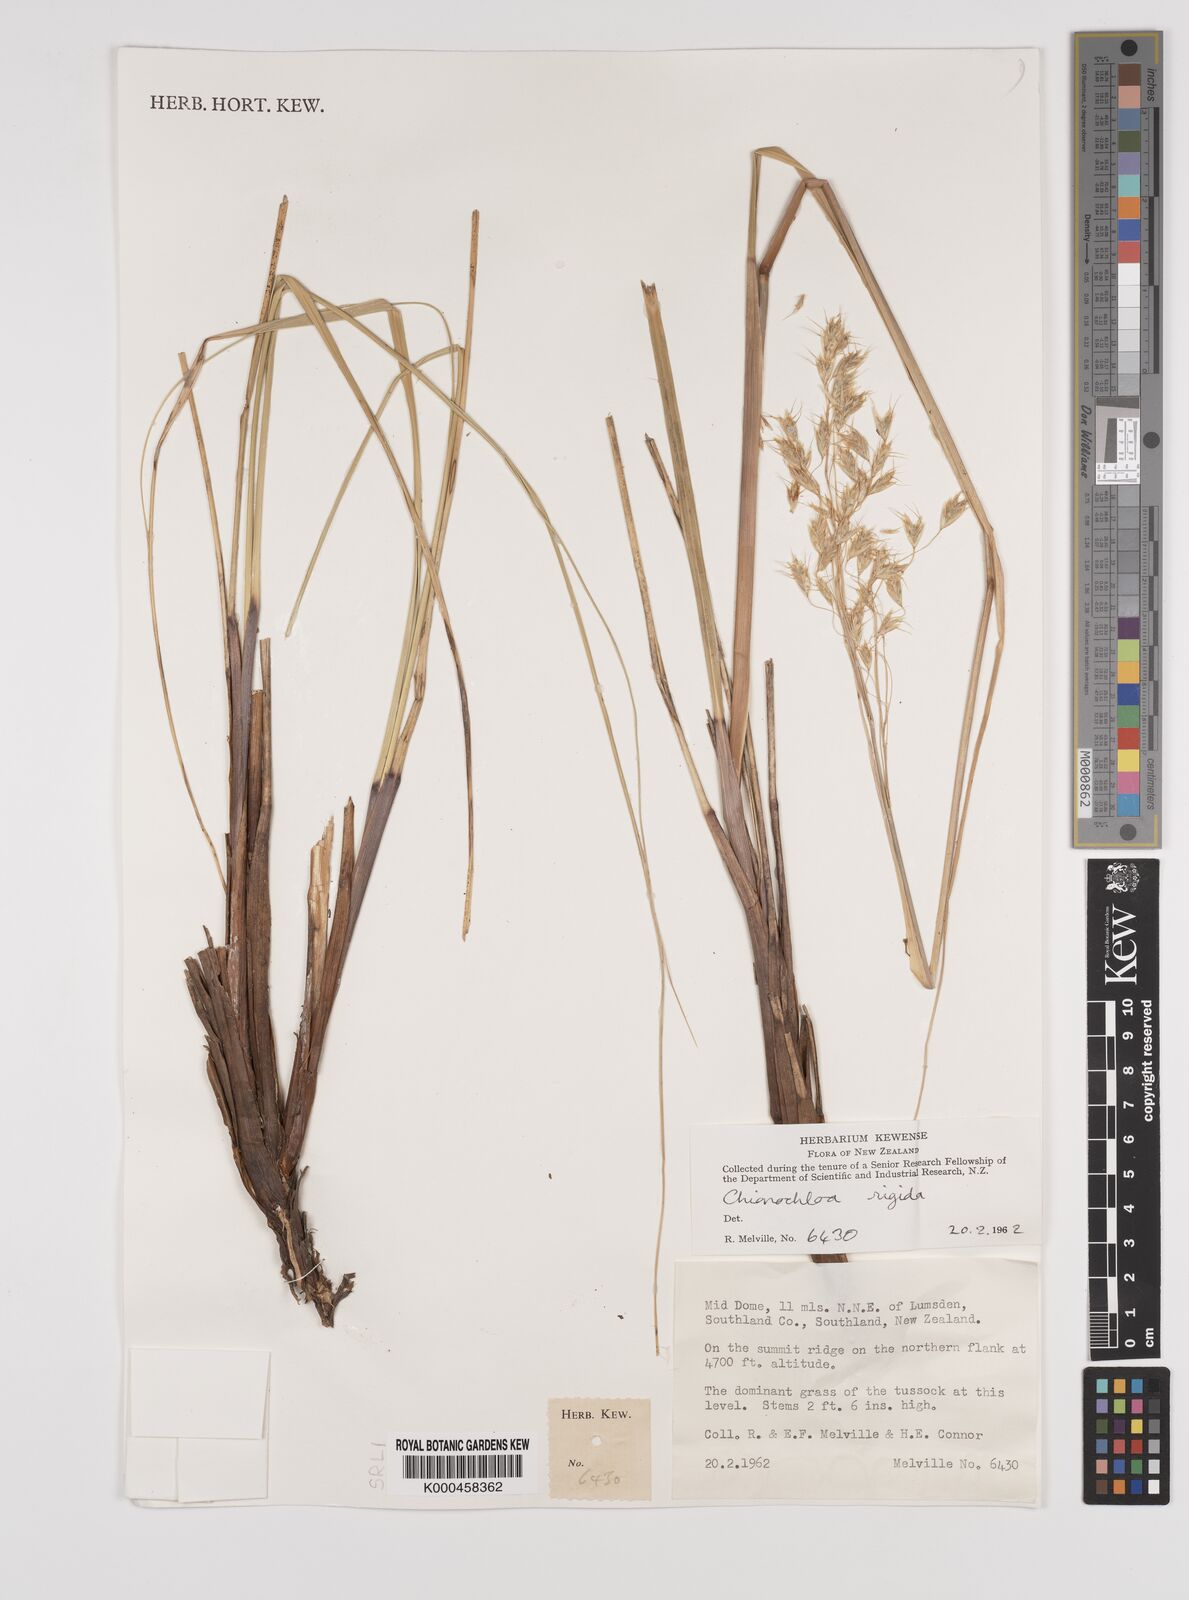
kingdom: Plantae
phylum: Tracheophyta
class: Liliopsida
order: Poales
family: Poaceae
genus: Chionochloa
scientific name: Chionochloa rigida
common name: Narrow leaved snow tussock
